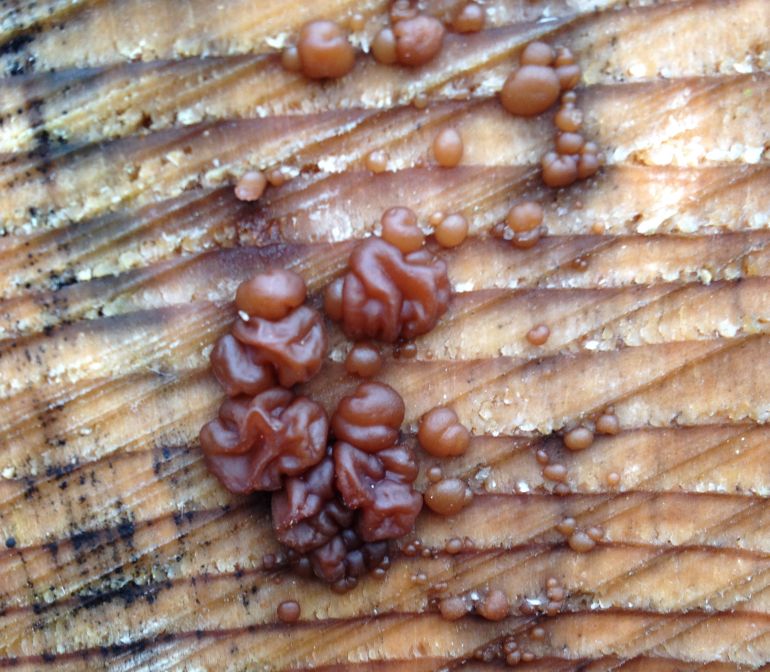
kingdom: Fungi
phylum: Basidiomycota
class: Agaricomycetes
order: Auriculariales
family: Auriculariaceae
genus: Exidia
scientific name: Exidia saccharina
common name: kandis-bævretop
